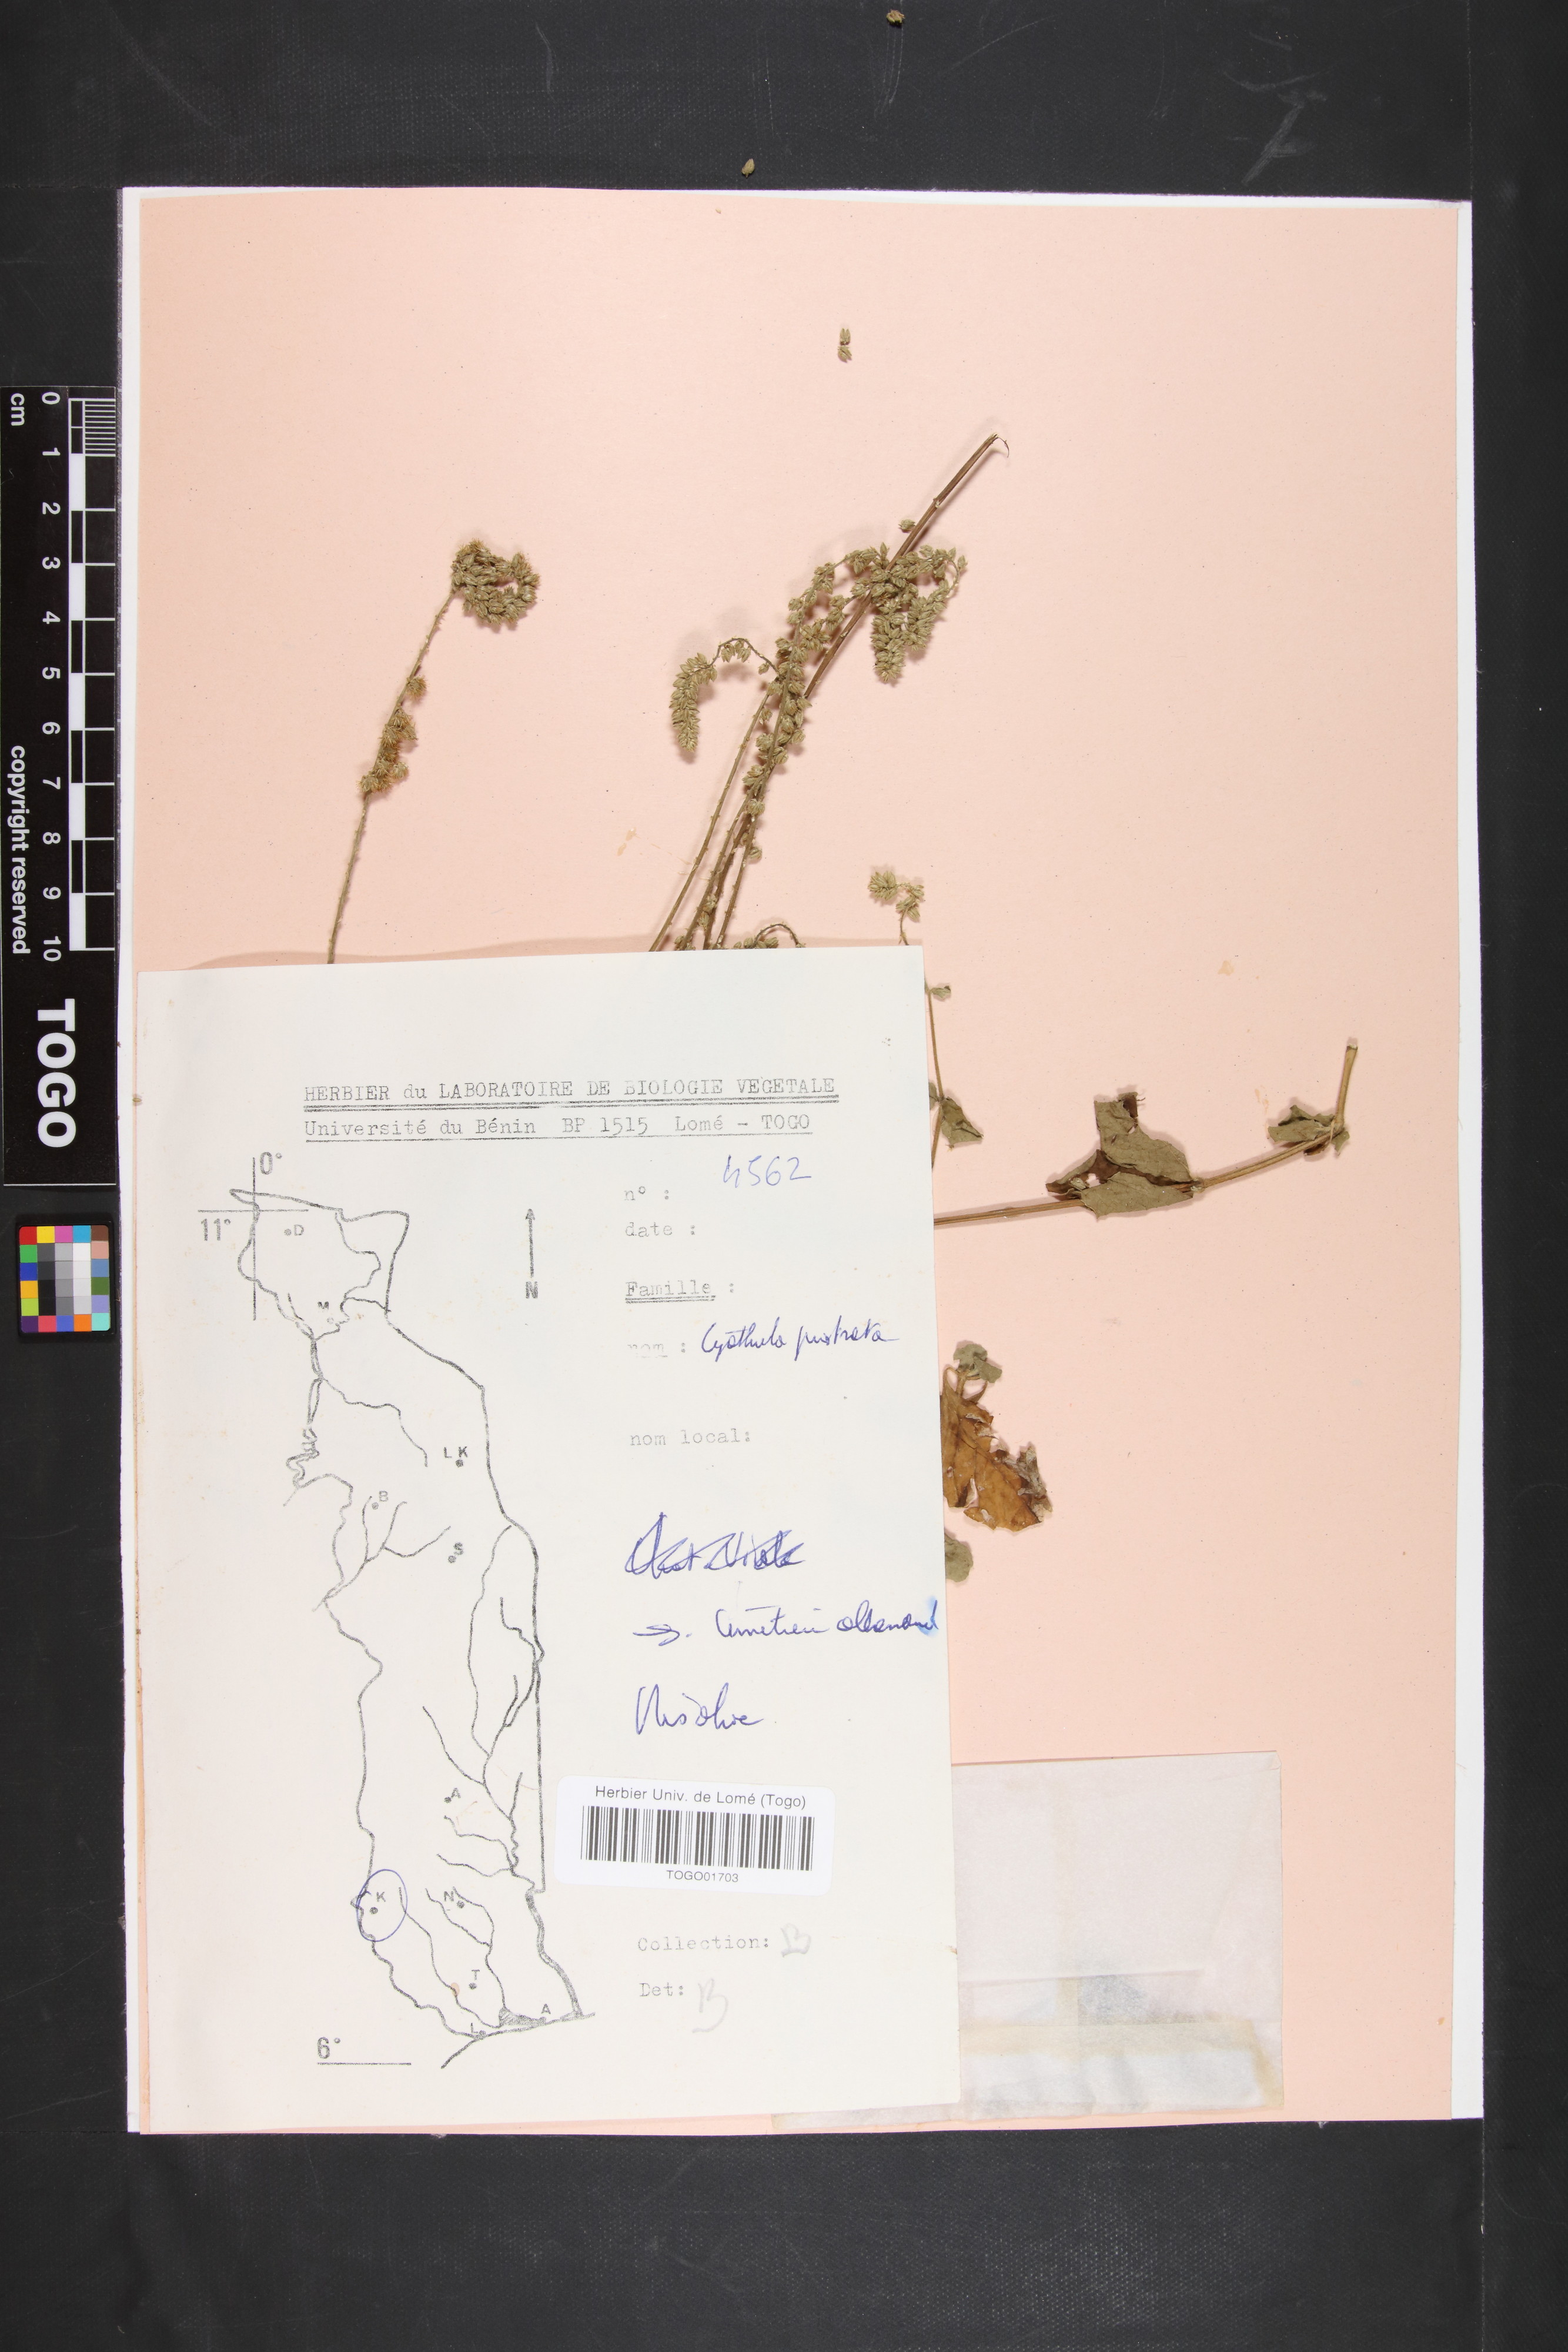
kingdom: Plantae
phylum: Tracheophyta
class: Magnoliopsida
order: Caryophyllales
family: Amaranthaceae
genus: Cyathula
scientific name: Cyathula prostrata
